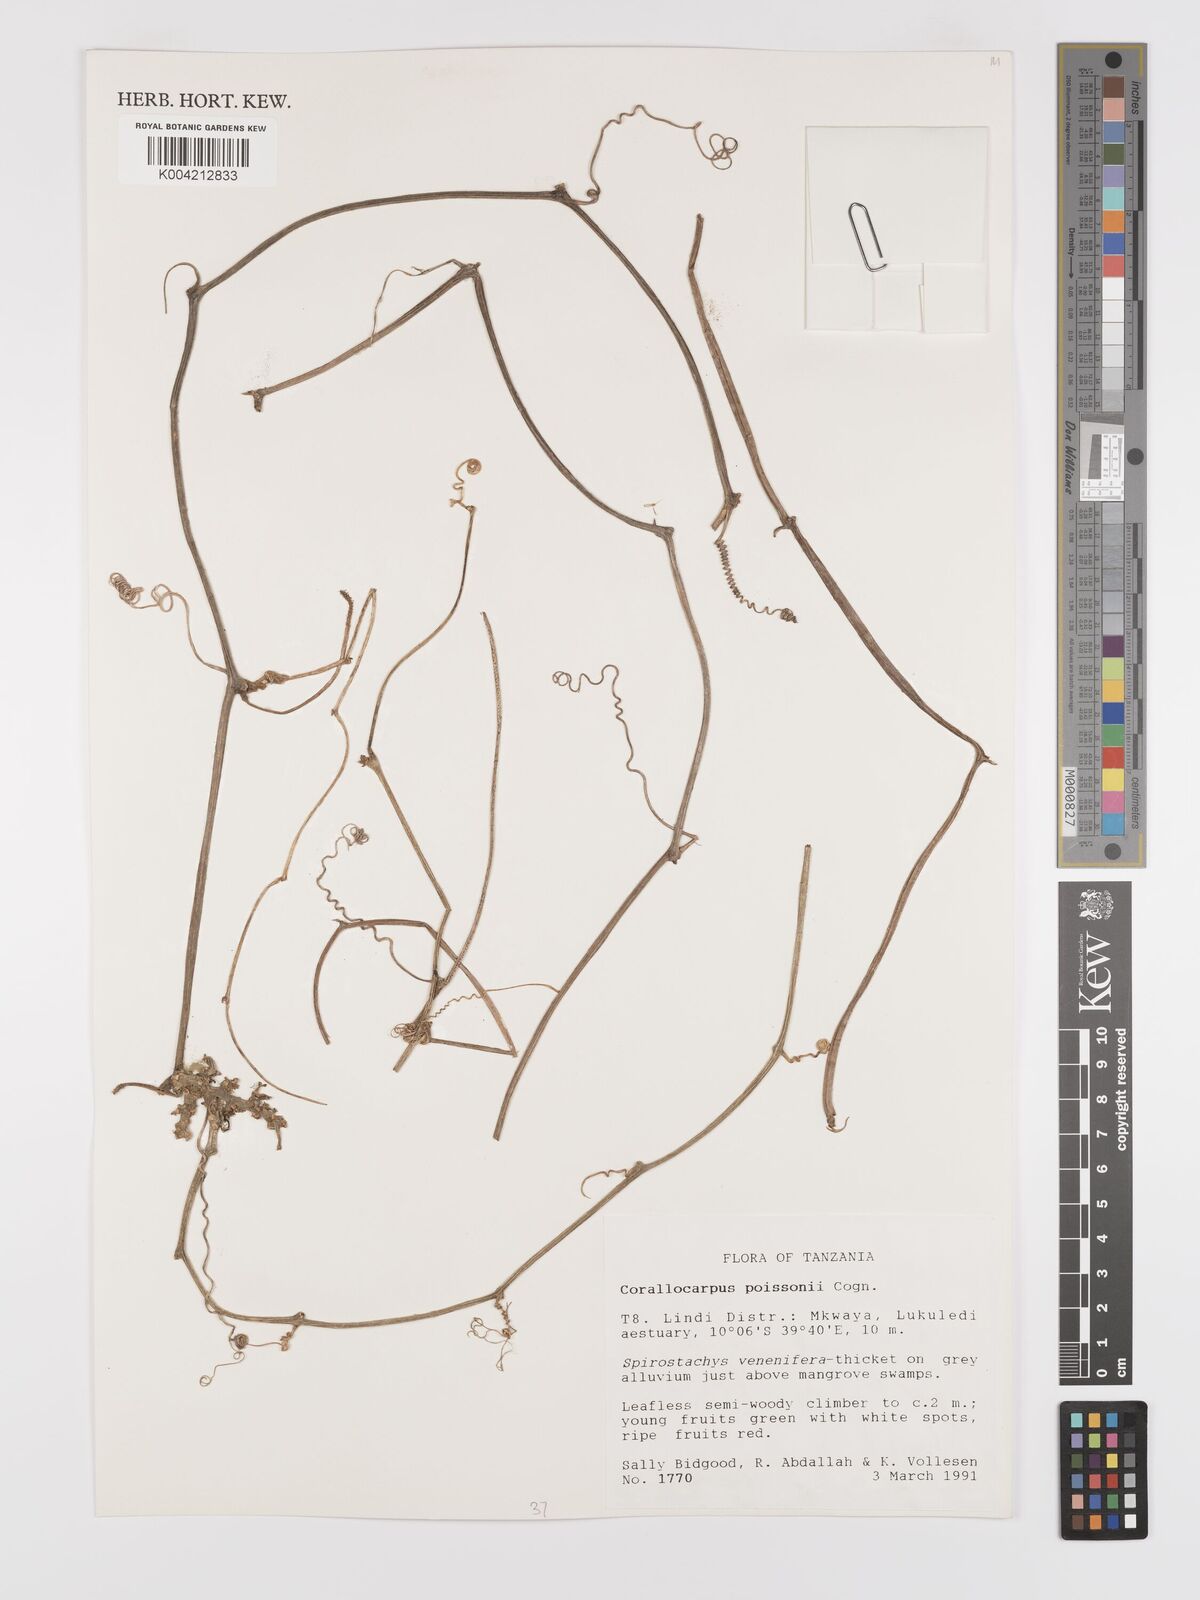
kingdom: Plantae
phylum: Tracheophyta
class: Magnoliopsida
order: Cucurbitales
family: Cucurbitaceae
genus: Corallocarpus
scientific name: Corallocarpus bainesii
